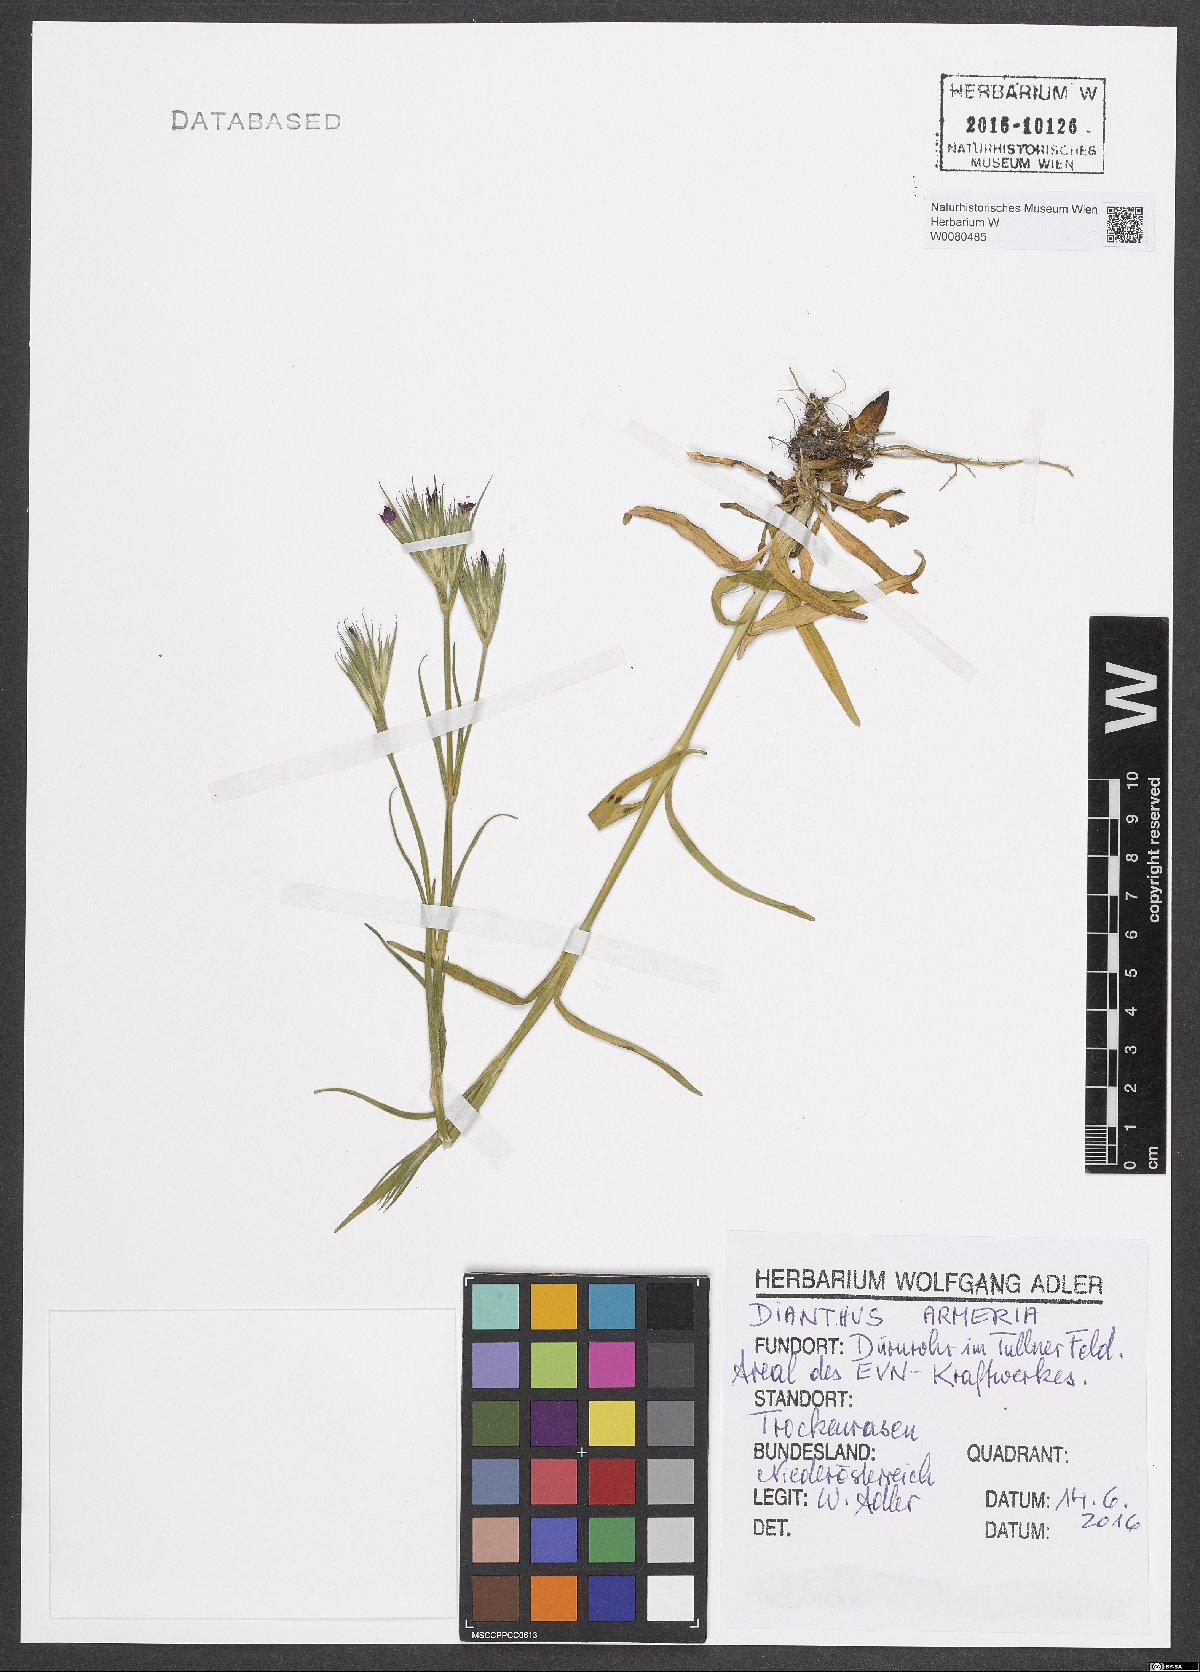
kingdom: Plantae
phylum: Tracheophyta
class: Magnoliopsida
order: Caryophyllales
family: Caryophyllaceae
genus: Dianthus
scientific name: Dianthus armeria
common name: Deptford pink
